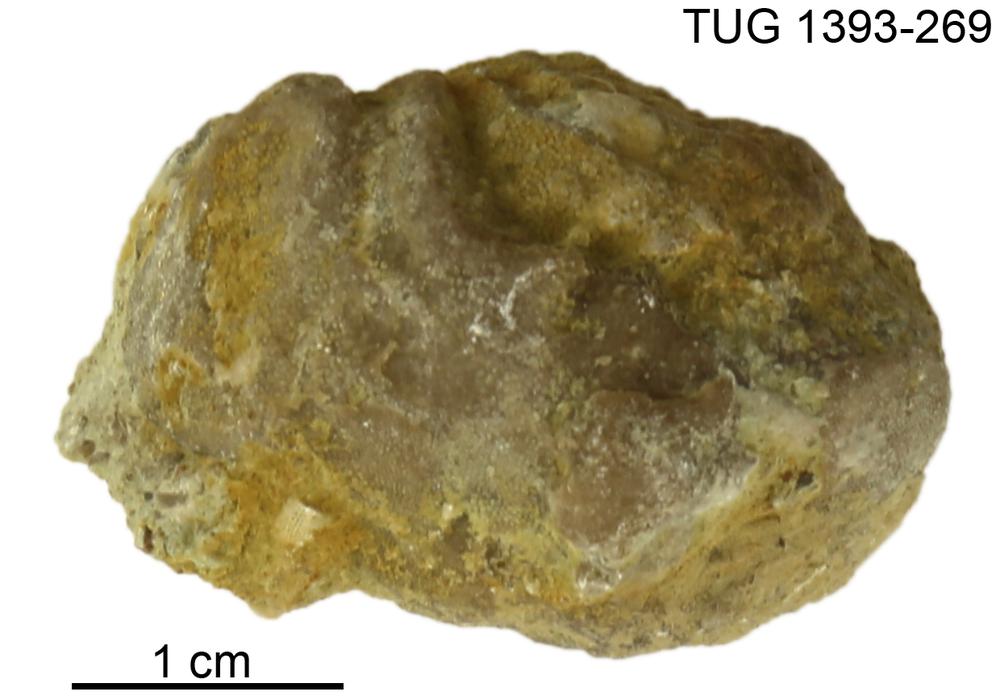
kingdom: Animalia
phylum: Bryozoa
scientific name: Bryozoa
